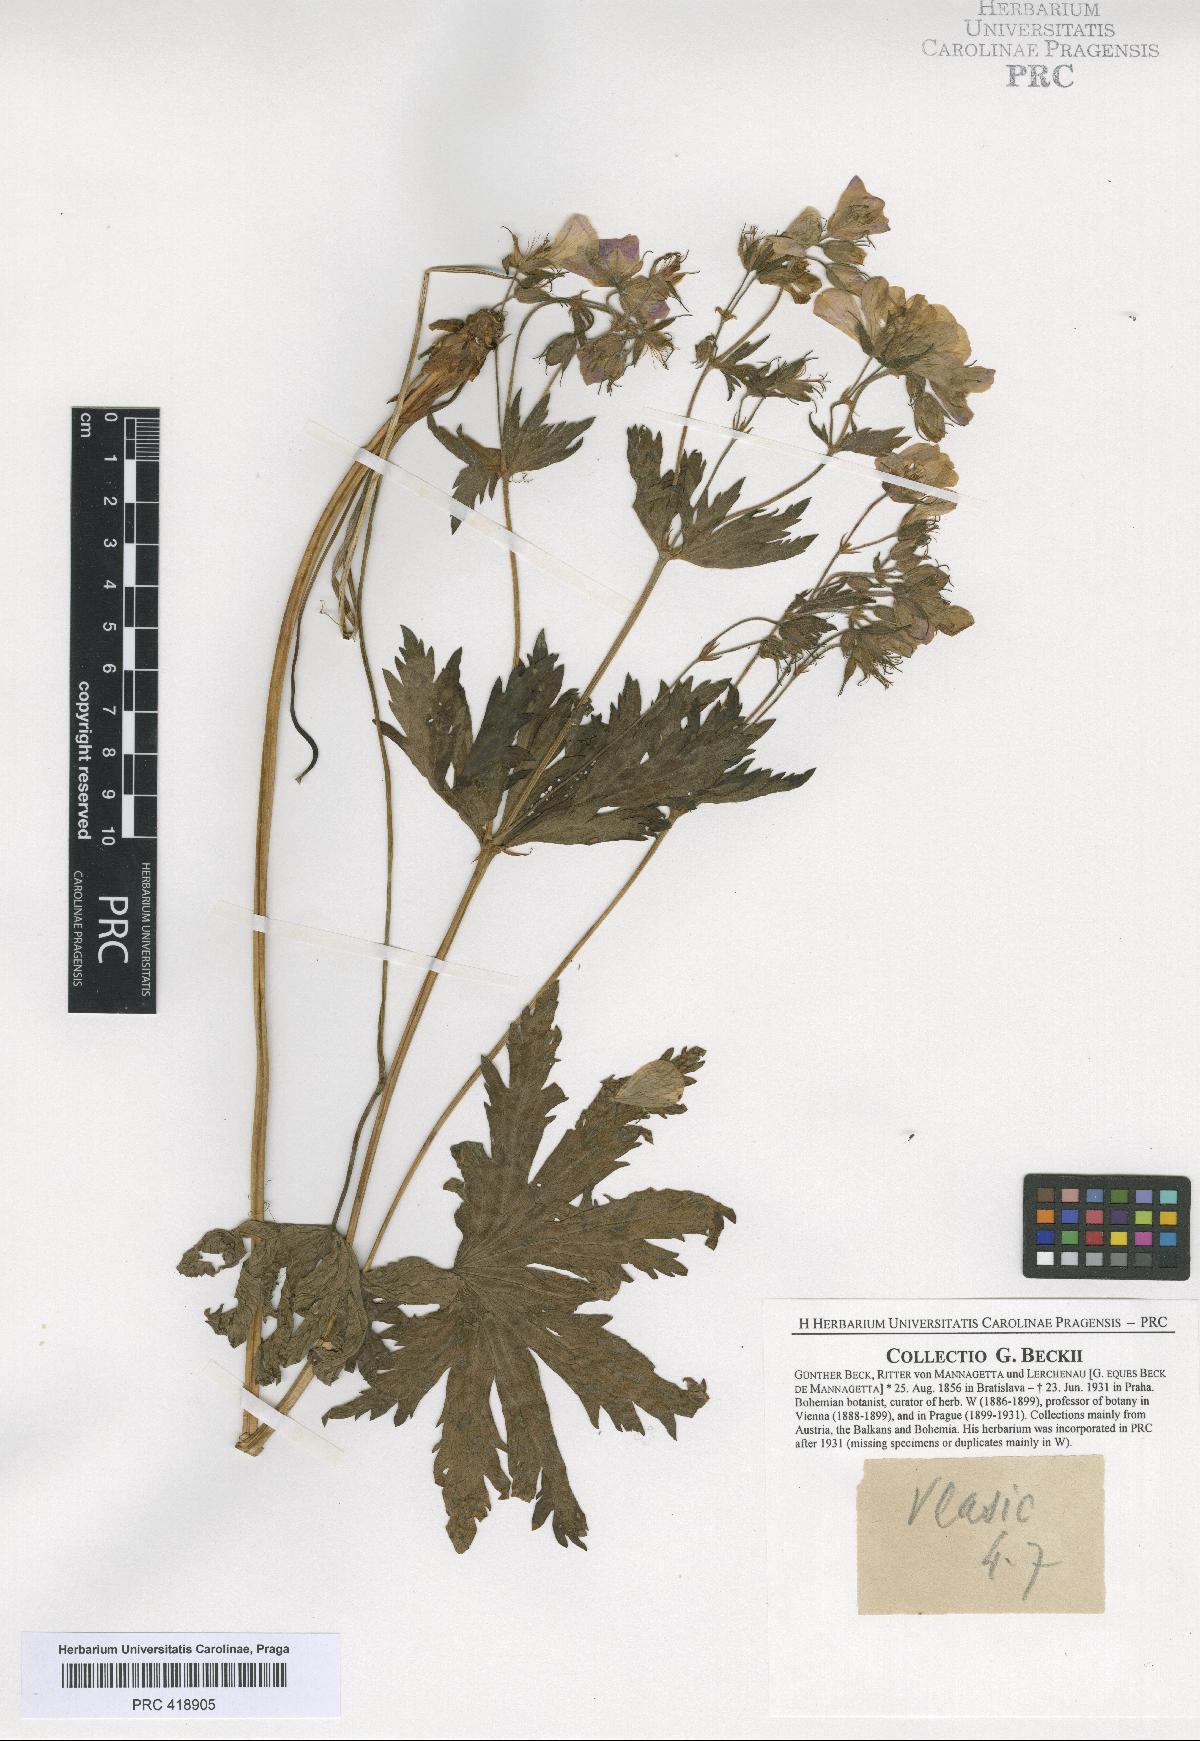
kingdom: Plantae
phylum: Tracheophyta
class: Magnoliopsida
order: Geraniales
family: Geraniaceae
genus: Geranium
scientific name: Geranium sylvaticum
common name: Wood crane's-bill
